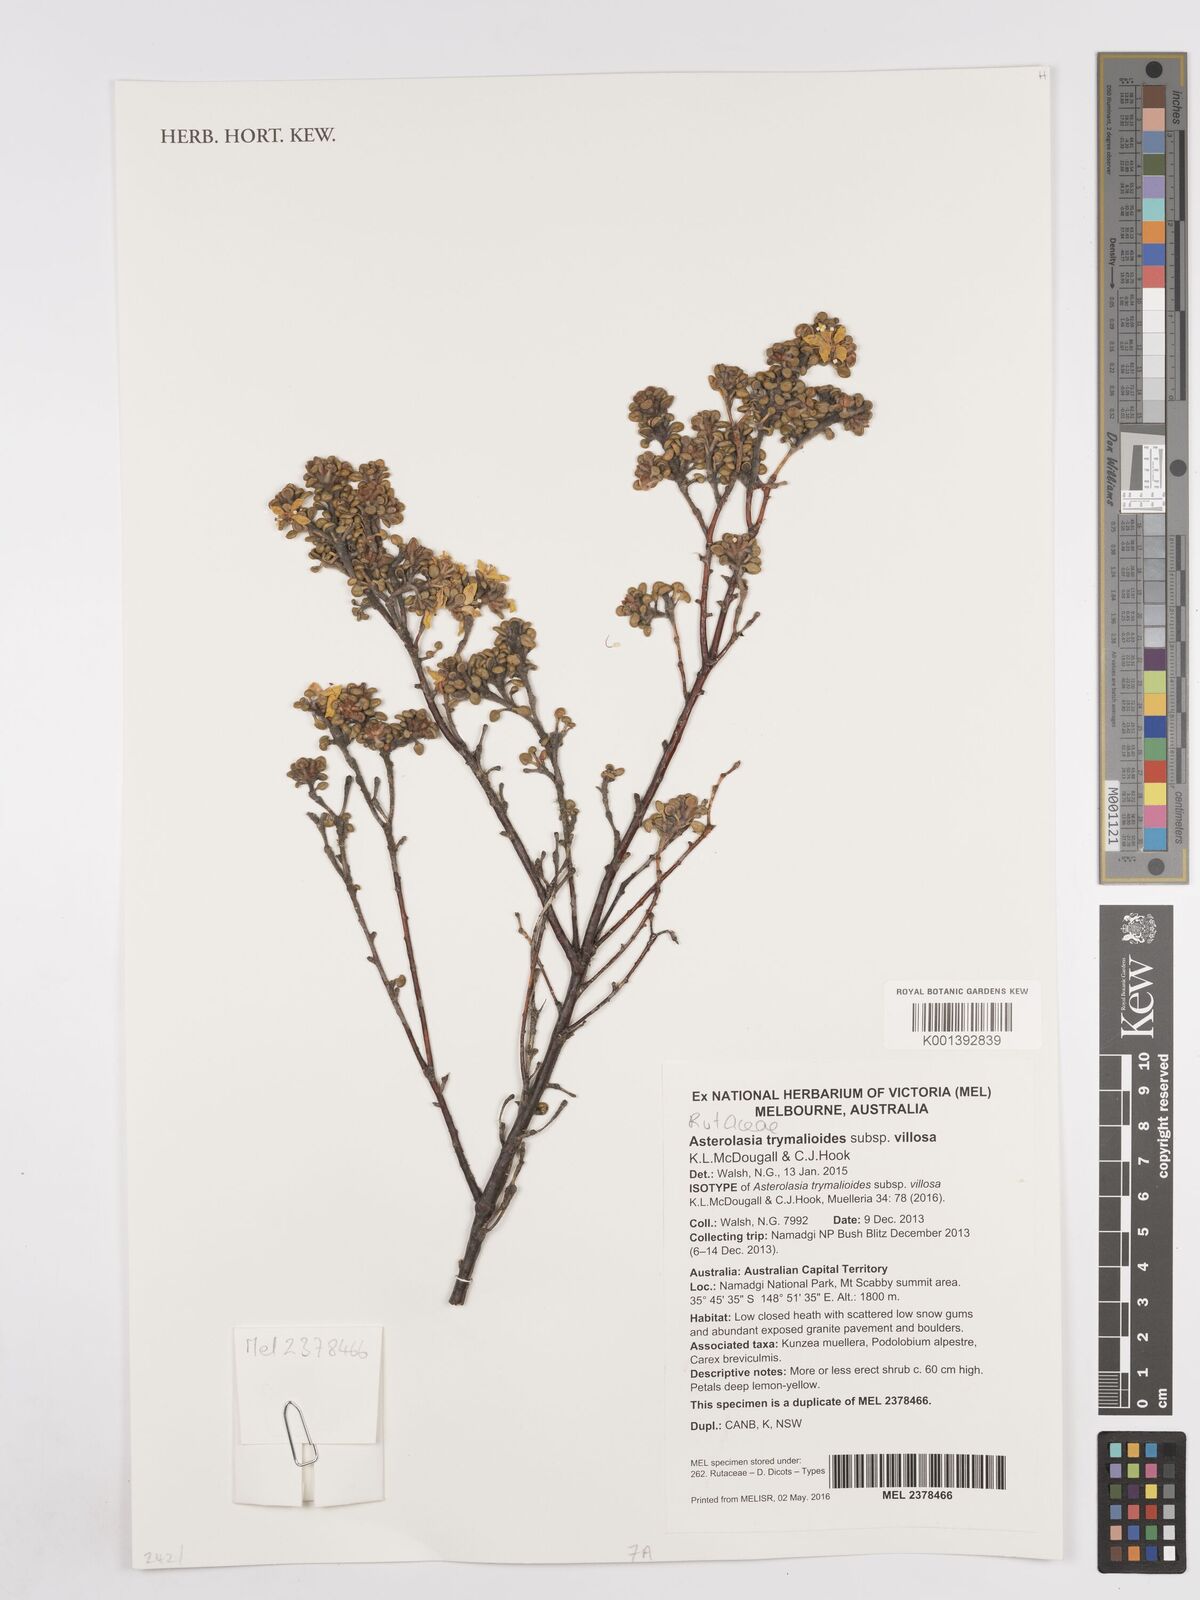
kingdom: Plantae
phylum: Tracheophyta
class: Magnoliopsida
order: Sapindales
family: Rutaceae
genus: Asterolasia
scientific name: Asterolasia trymalioides
